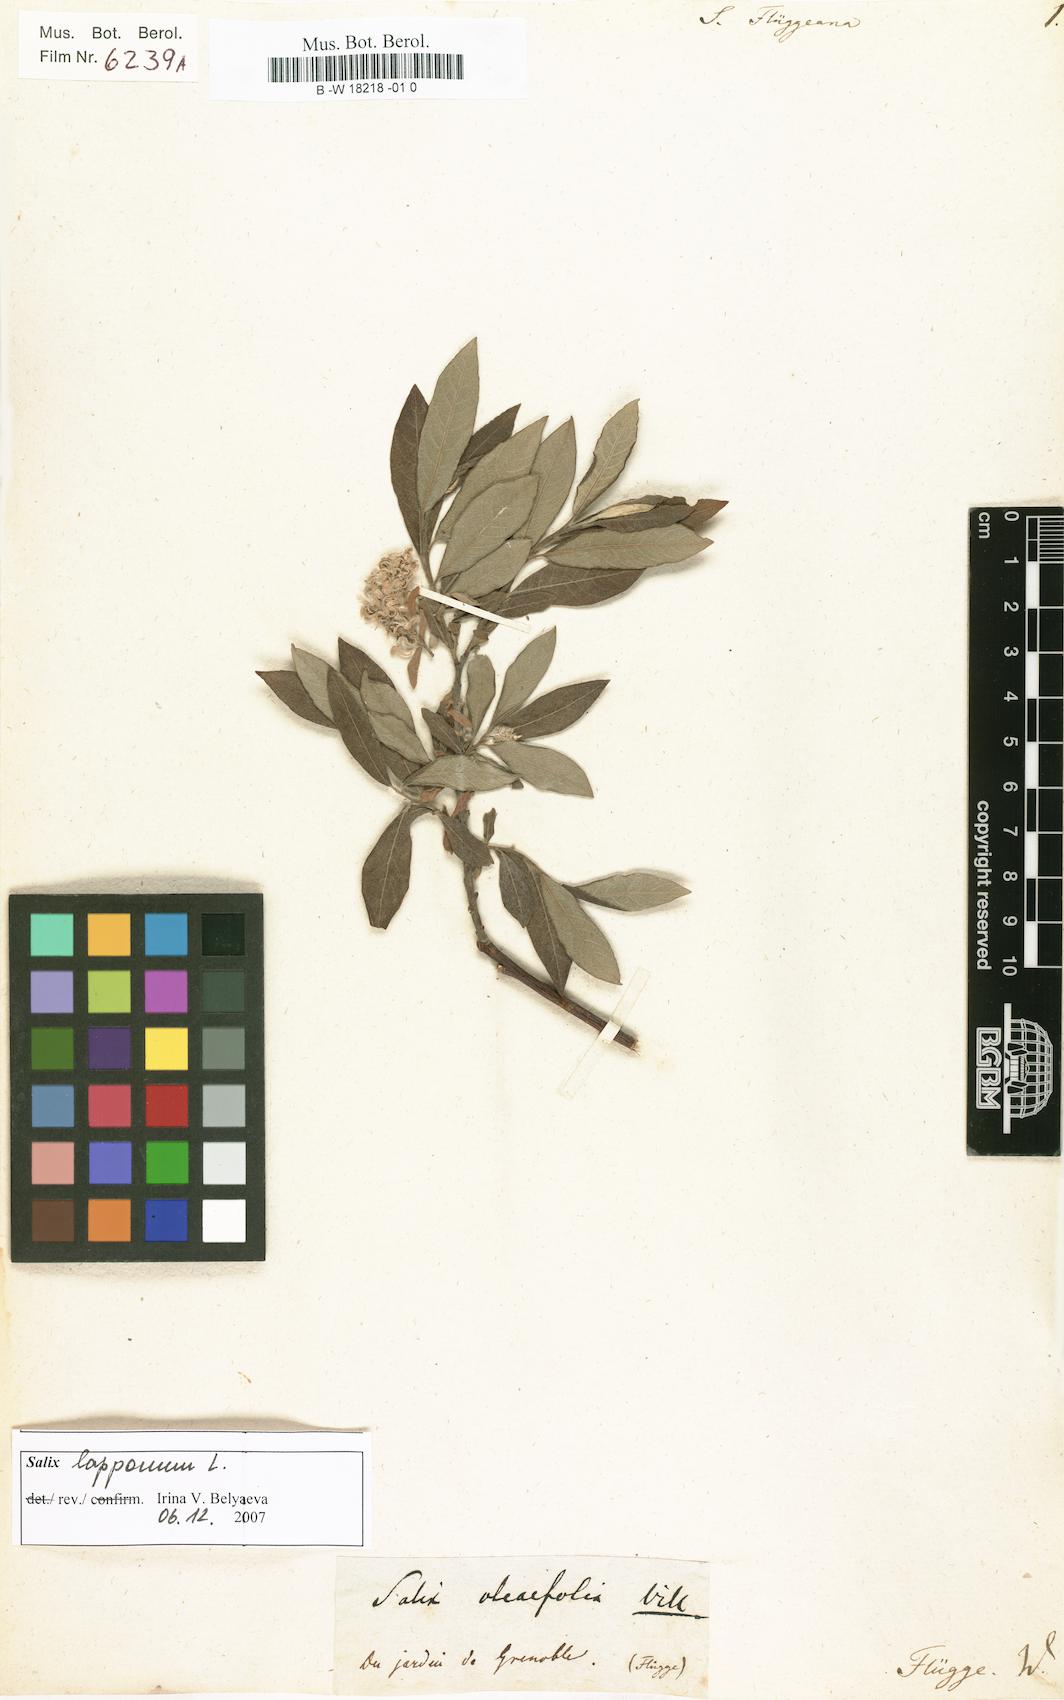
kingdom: Plantae
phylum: Tracheophyta
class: Magnoliopsida
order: Malpighiales
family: Salicaceae
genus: Salix
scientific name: Salix flueggeana
